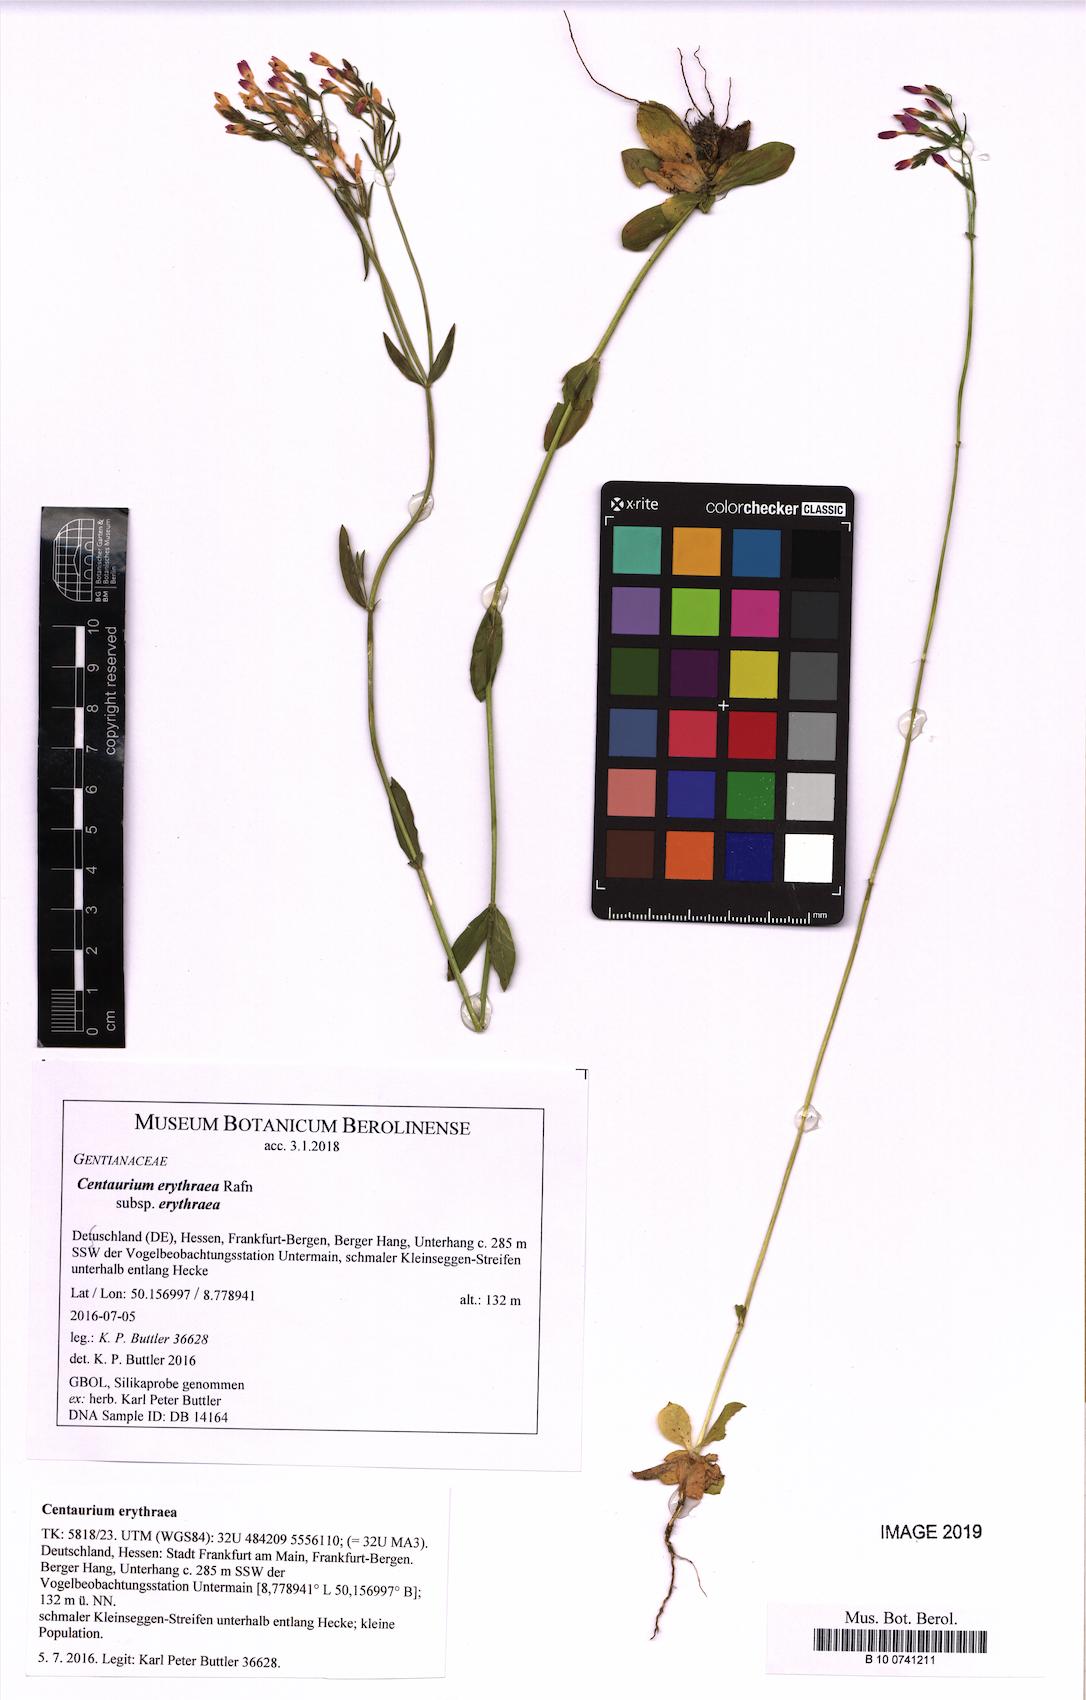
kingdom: Plantae
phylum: Tracheophyta
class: Magnoliopsida
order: Gentianales
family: Gentianaceae
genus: Centaurium
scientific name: Centaurium erythraea
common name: Common centaury
